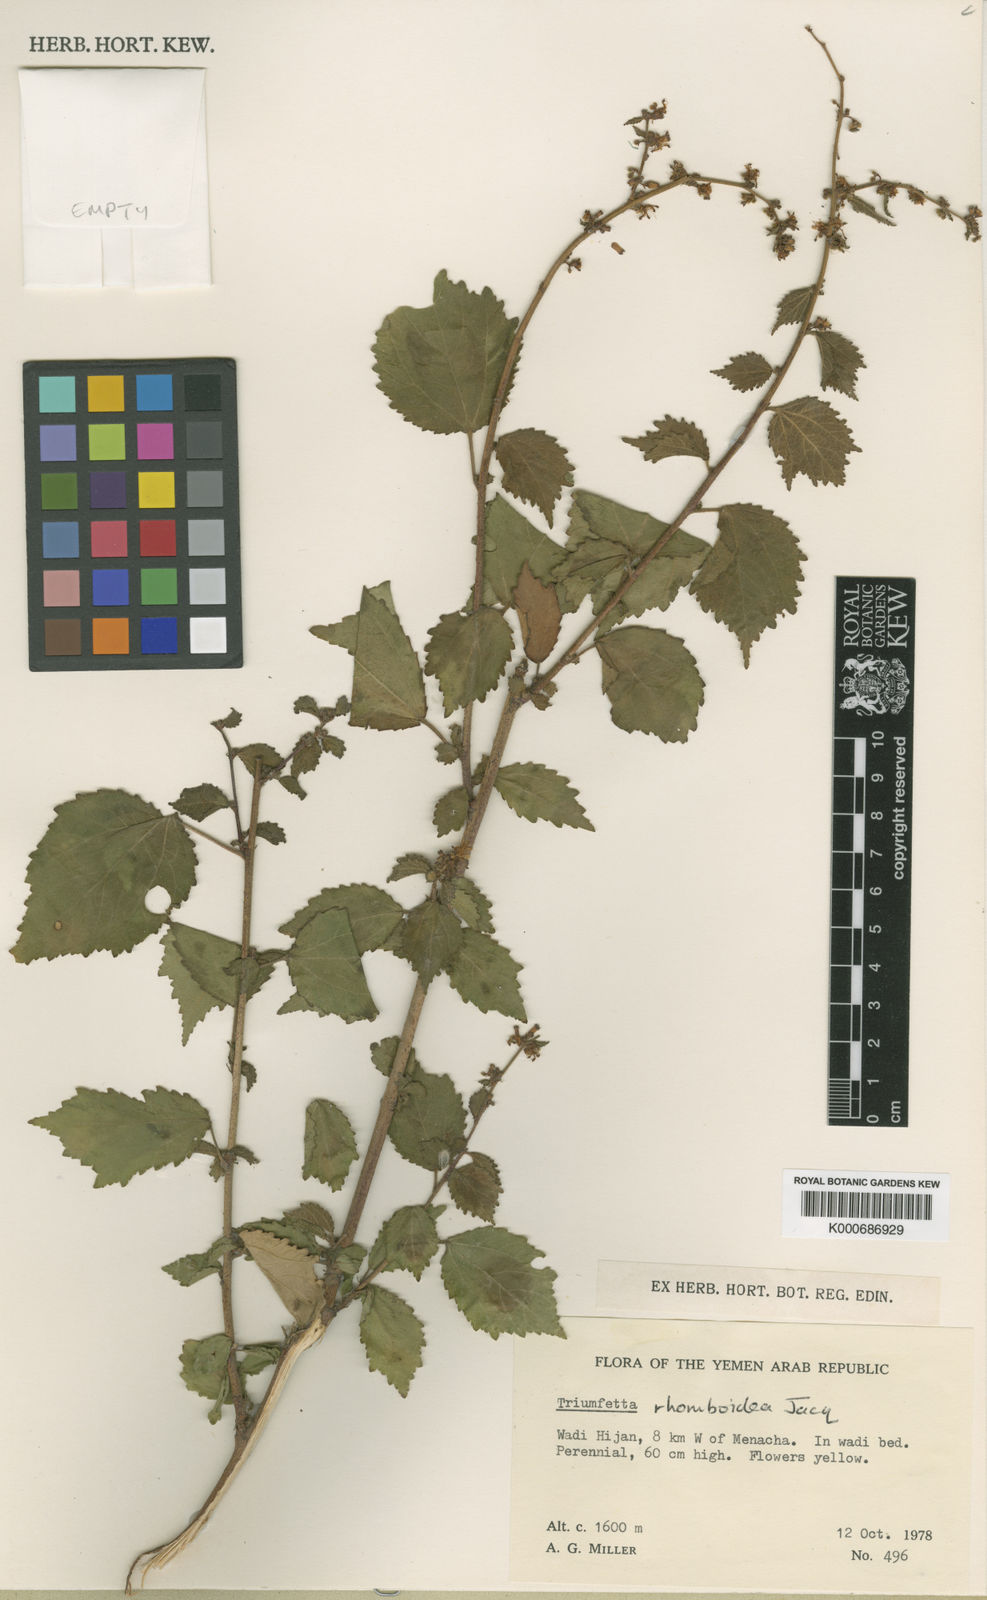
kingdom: Plantae
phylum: Tracheophyta
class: Magnoliopsida
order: Malvales
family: Malvaceae
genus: Triumfetta
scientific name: Triumfetta rhomboidea
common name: Diamond burbark
